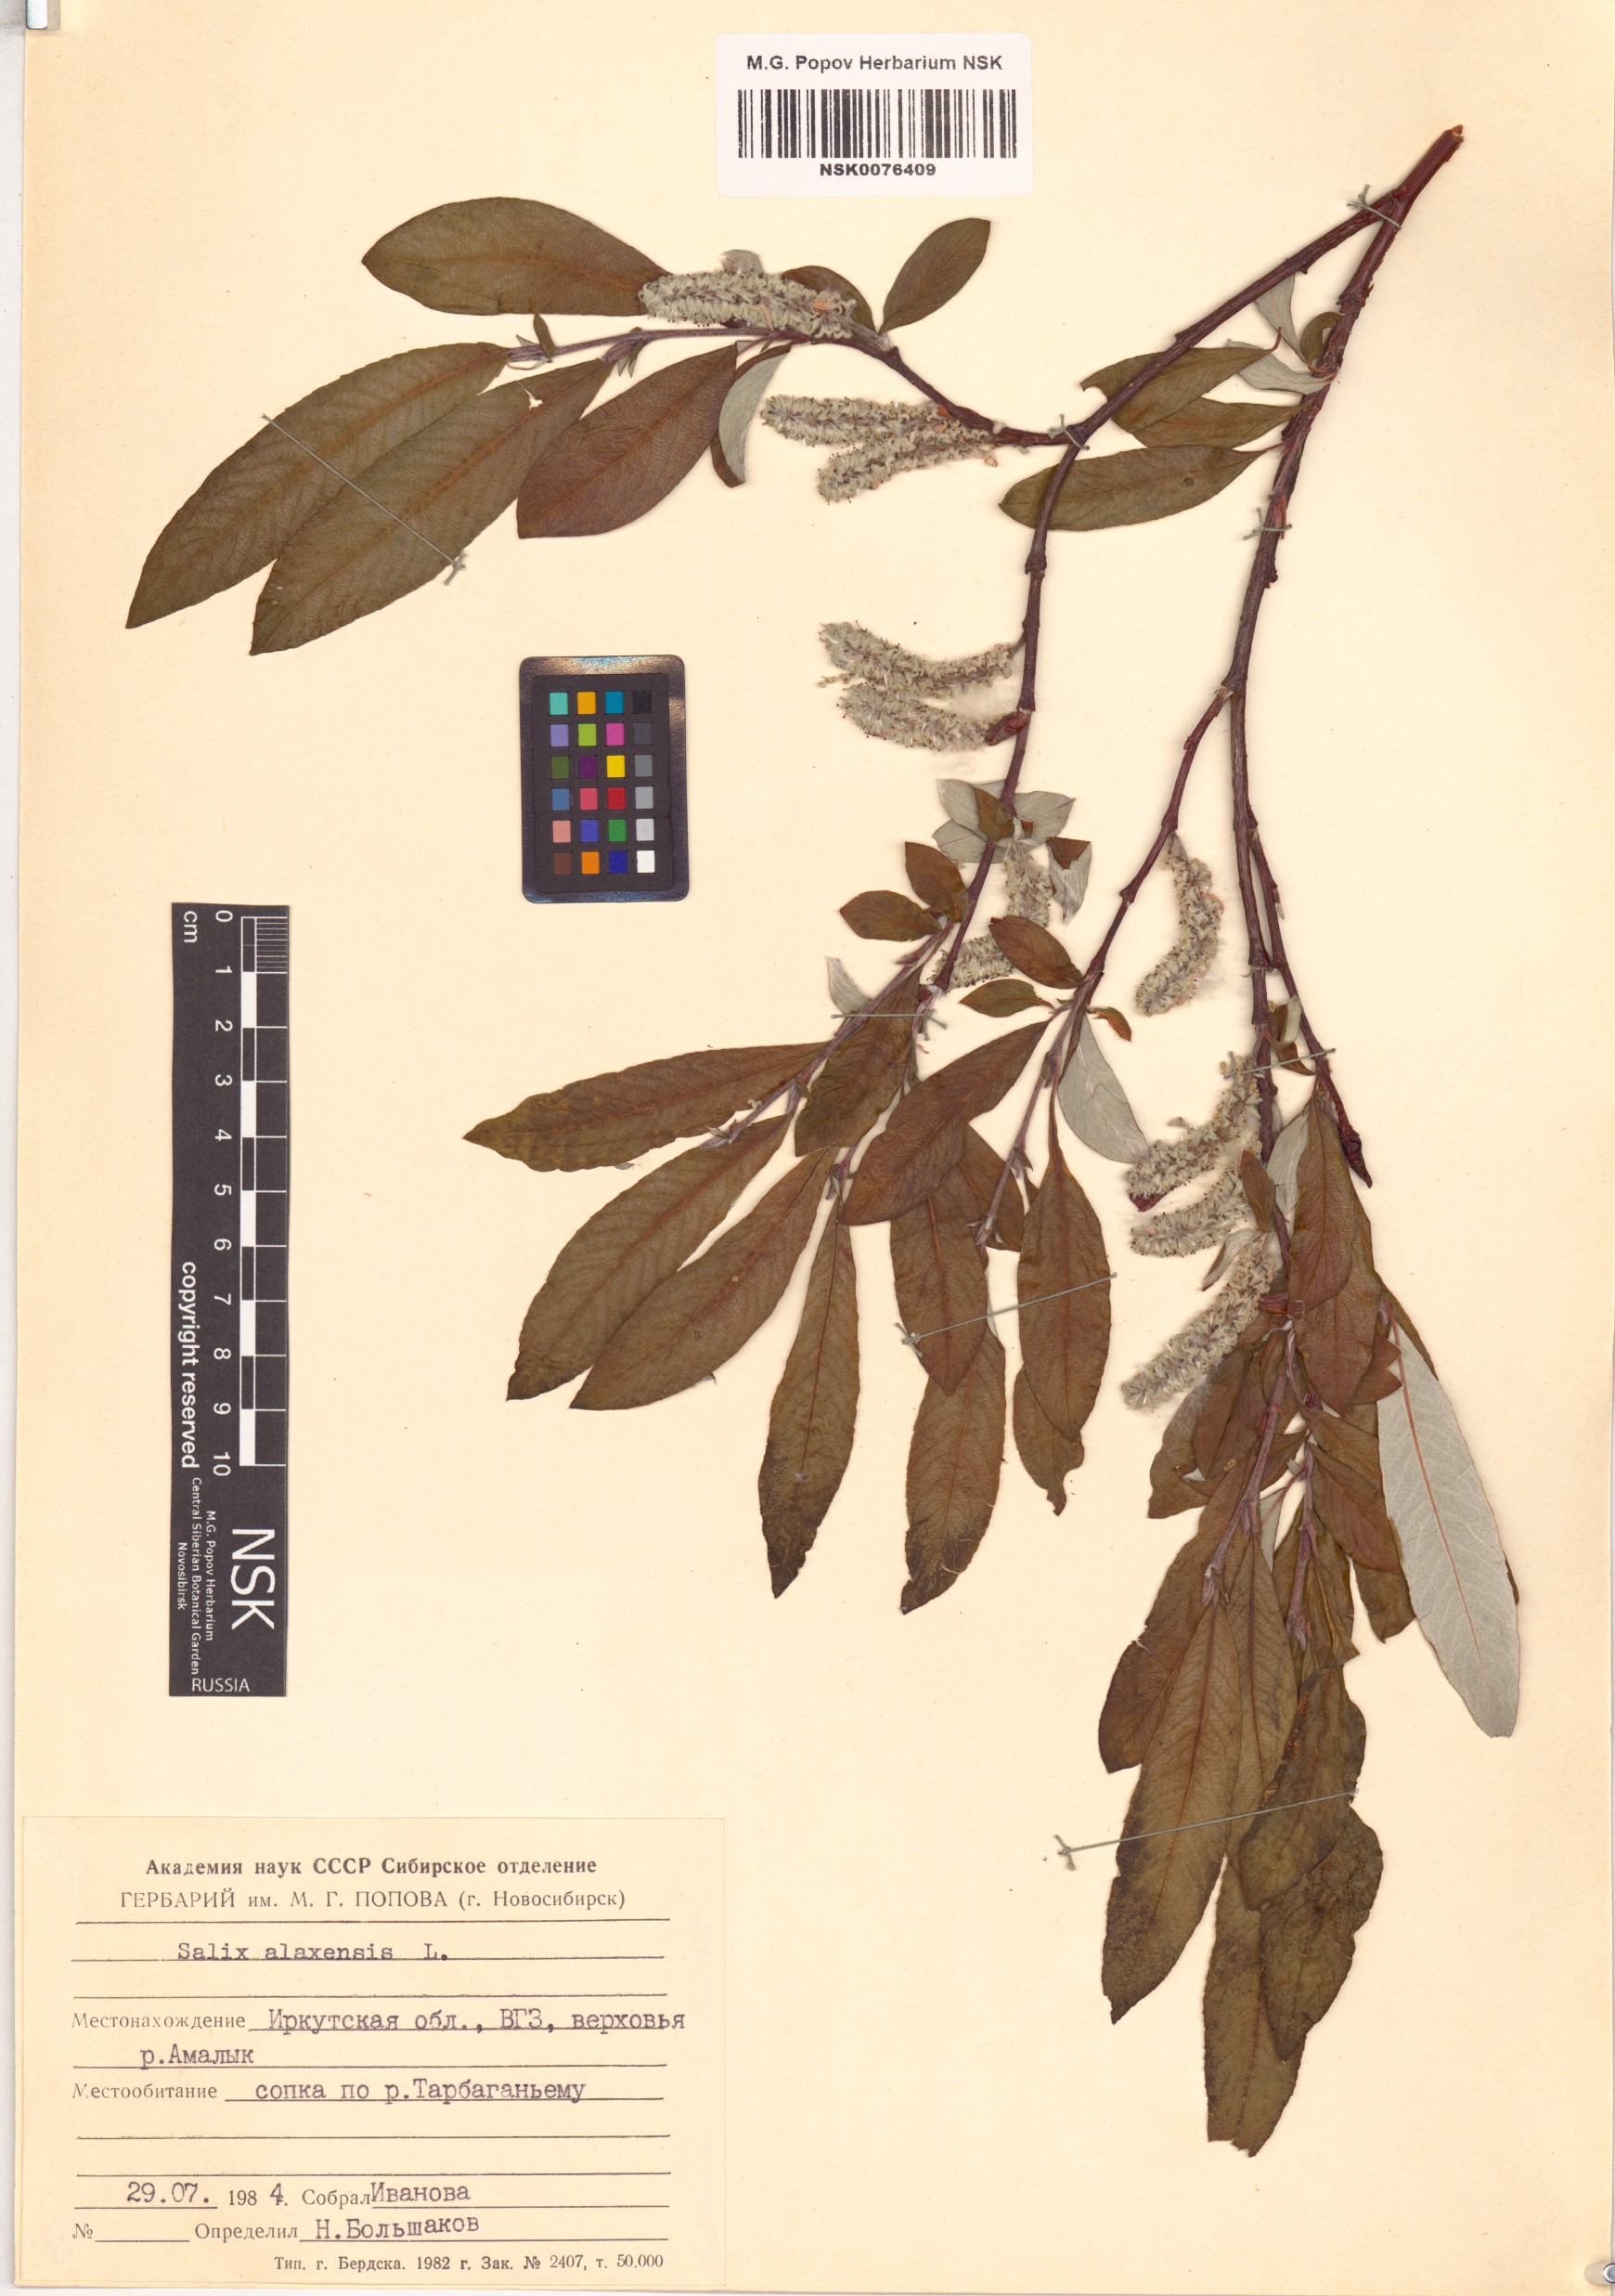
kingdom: Plantae
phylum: Tracheophyta
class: Magnoliopsida
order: Malpighiales
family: Salicaceae
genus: Salix
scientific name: Salix alaxensis
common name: Feltleaf willow
